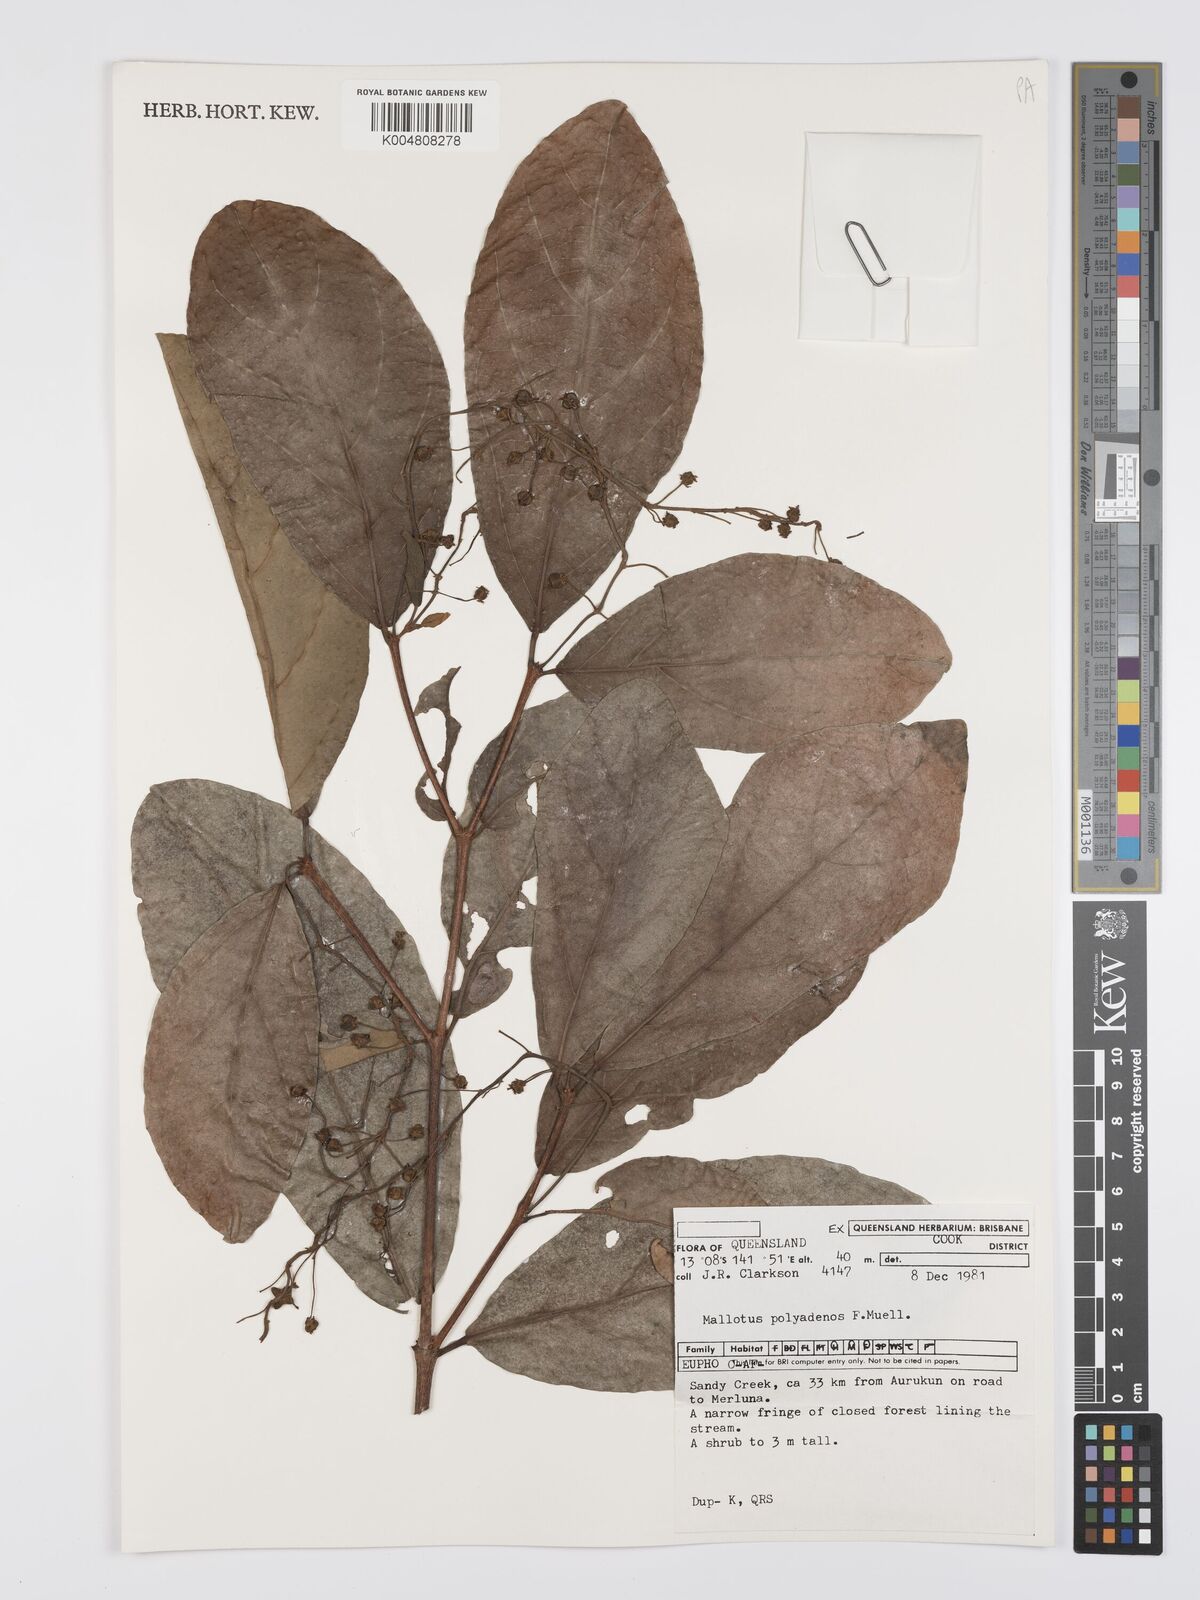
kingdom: Plantae
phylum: Tracheophyta
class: Magnoliopsida
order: Malpighiales
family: Euphorbiaceae
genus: Mallotus
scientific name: Mallotus polyadenos
